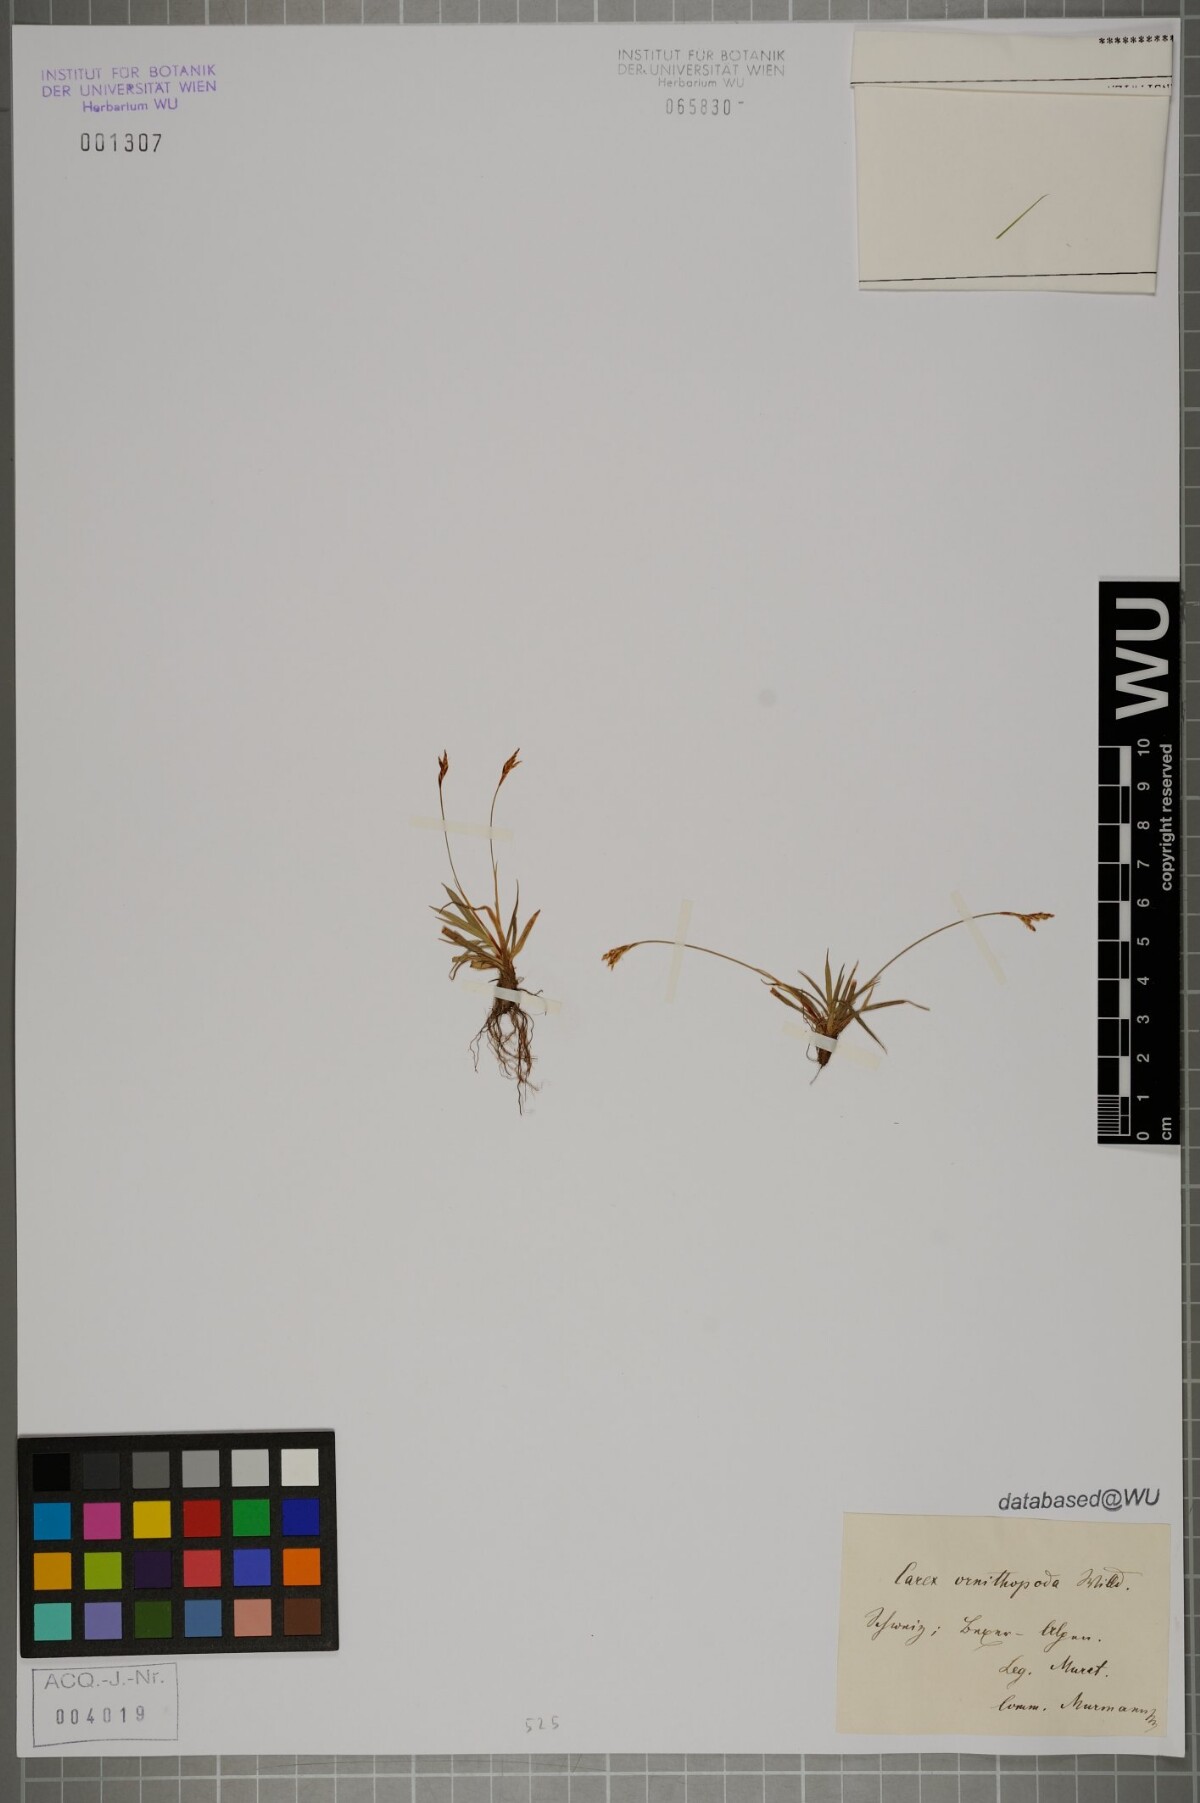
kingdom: Plantae
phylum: Tracheophyta
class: Liliopsida
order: Poales
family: Cyperaceae
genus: Carex
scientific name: Carex ornithopoda
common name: Bird's-foot sedge
